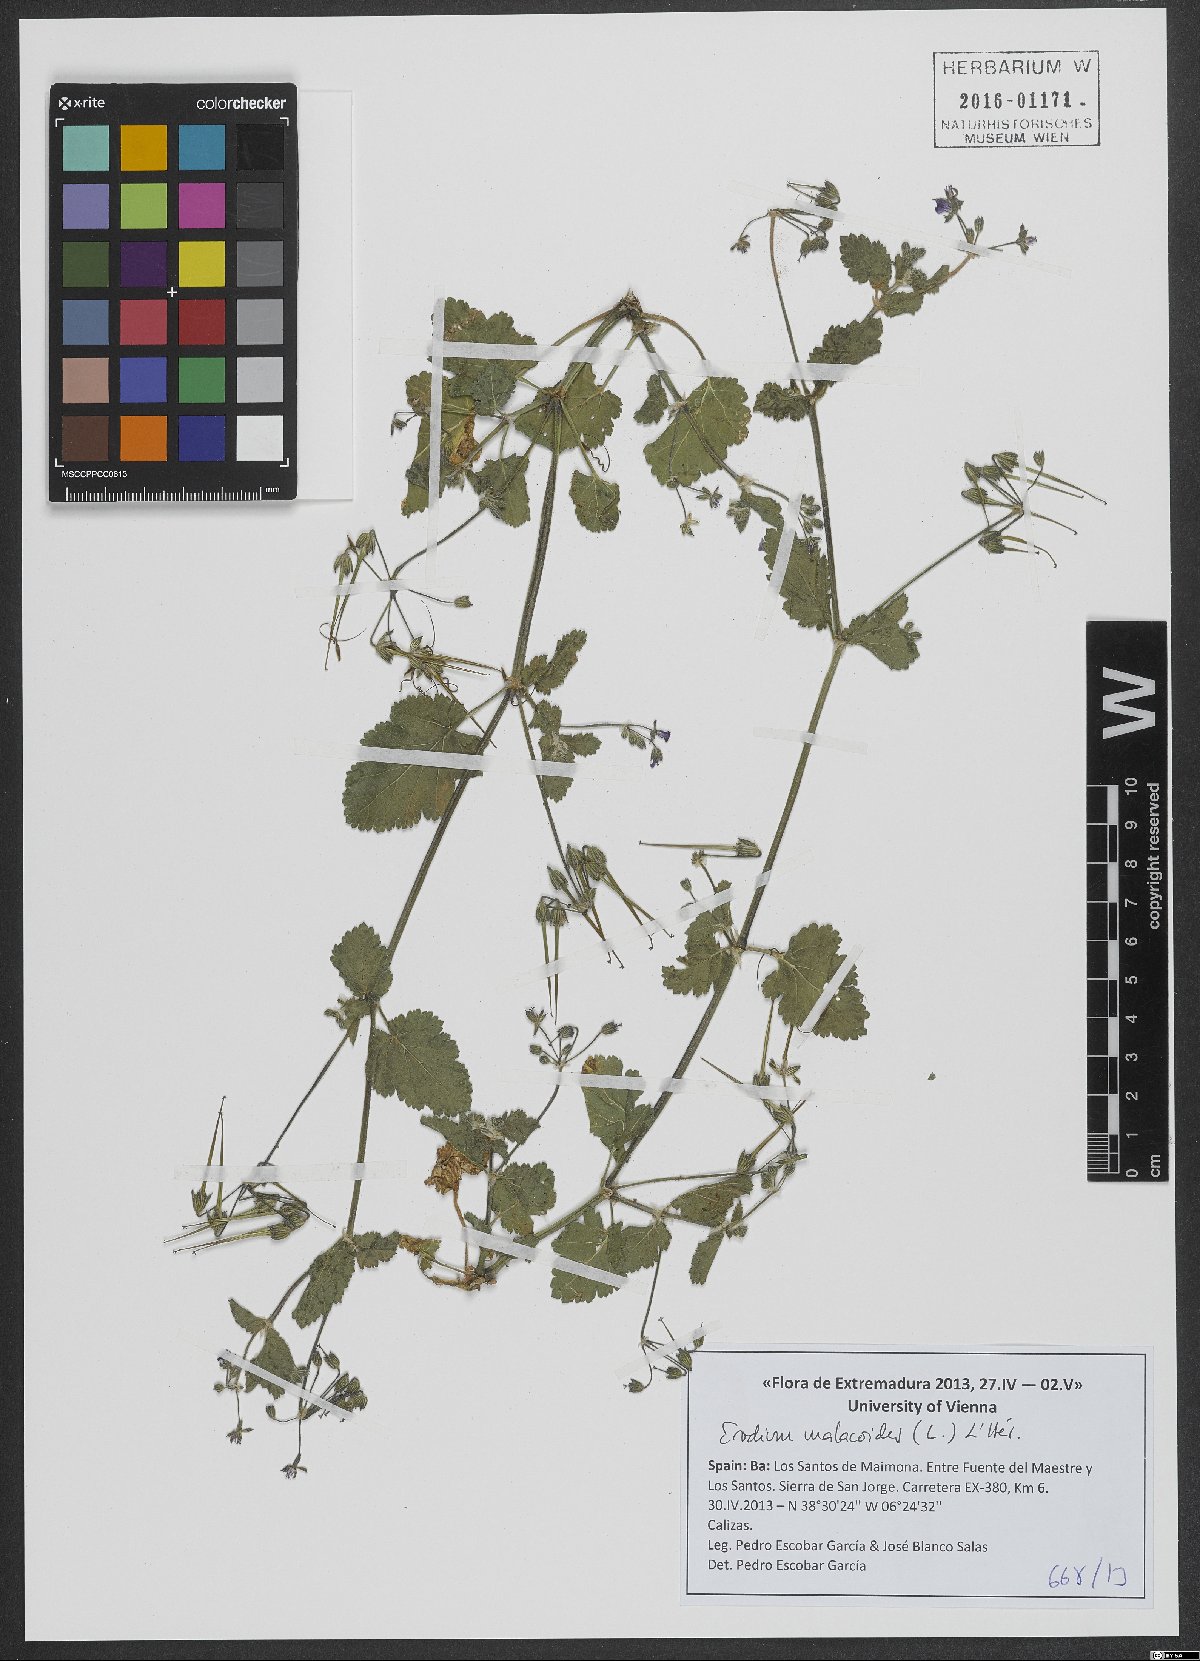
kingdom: Plantae
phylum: Tracheophyta
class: Magnoliopsida
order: Geraniales
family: Geraniaceae
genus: Erodium
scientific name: Erodium malacoides
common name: Soft stork's-bill
